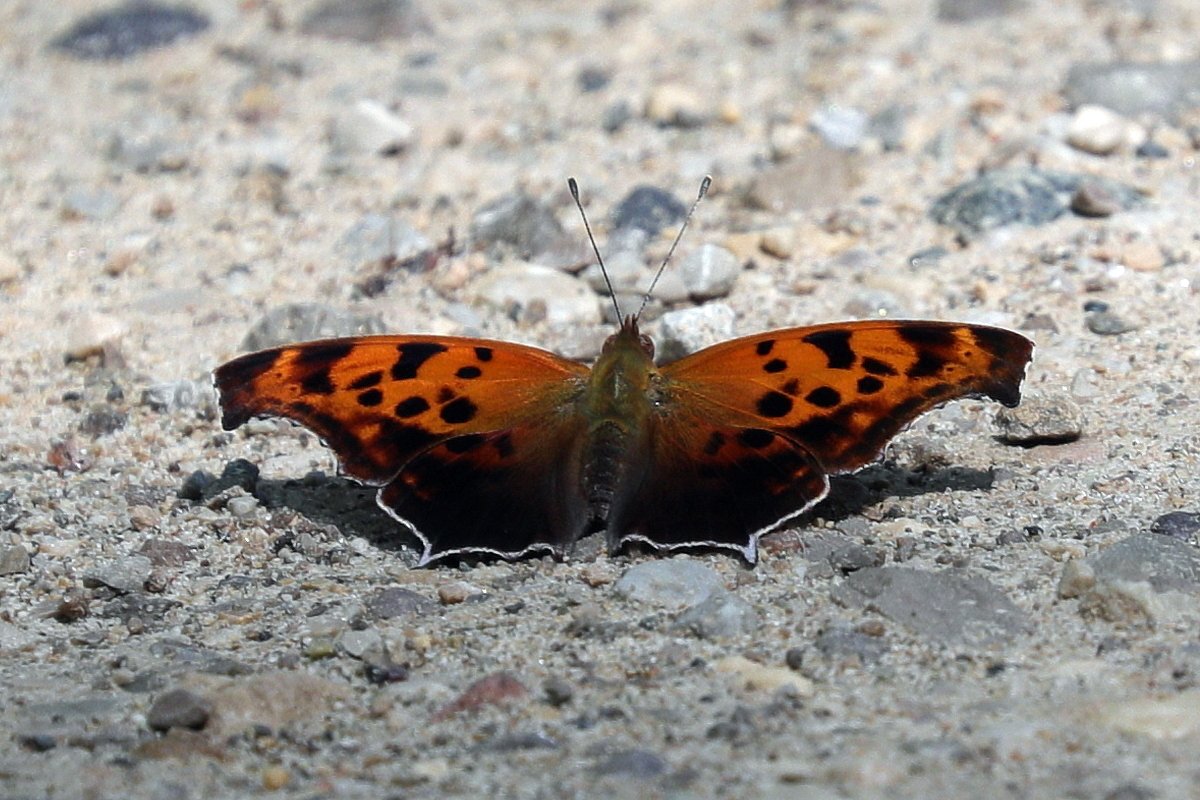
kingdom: Animalia
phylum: Arthropoda
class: Insecta
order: Lepidoptera
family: Nymphalidae
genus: Polygonia
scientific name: Polygonia interrogationis
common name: Question Mark
